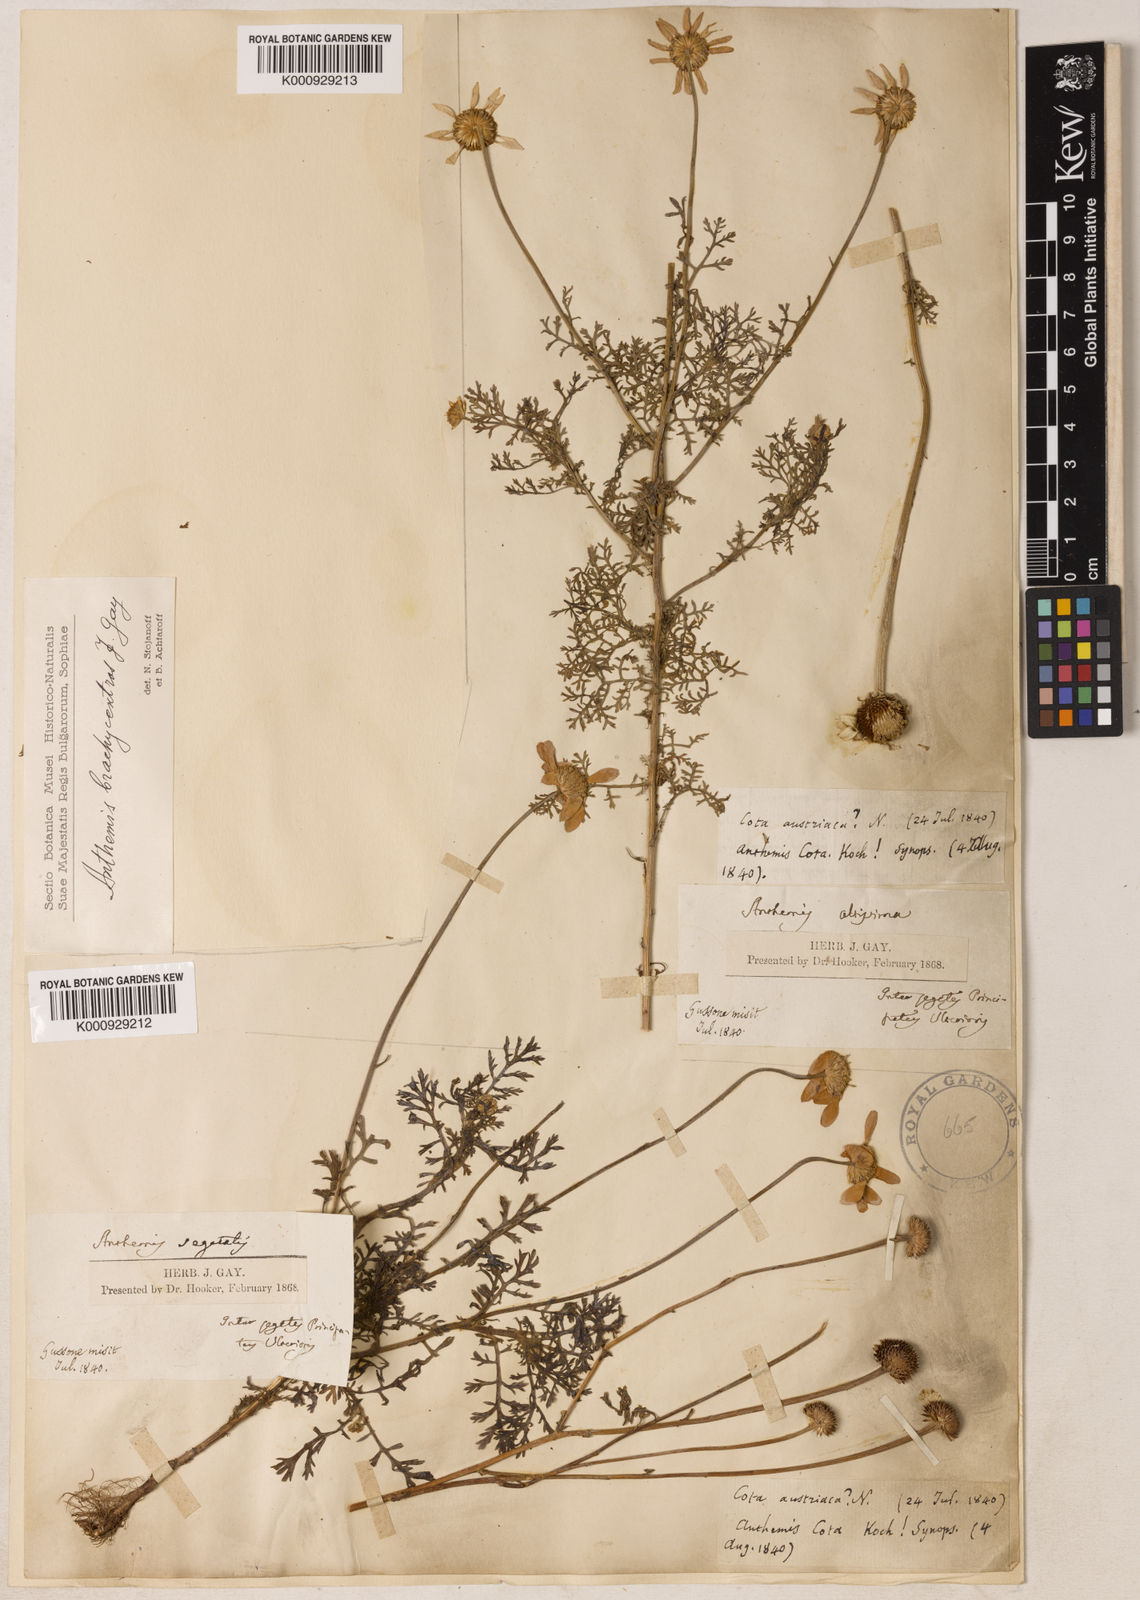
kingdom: Plantae
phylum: Tracheophyta
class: Magnoliopsida
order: Asterales
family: Asteraceae
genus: Cota
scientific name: Cota segetalis
